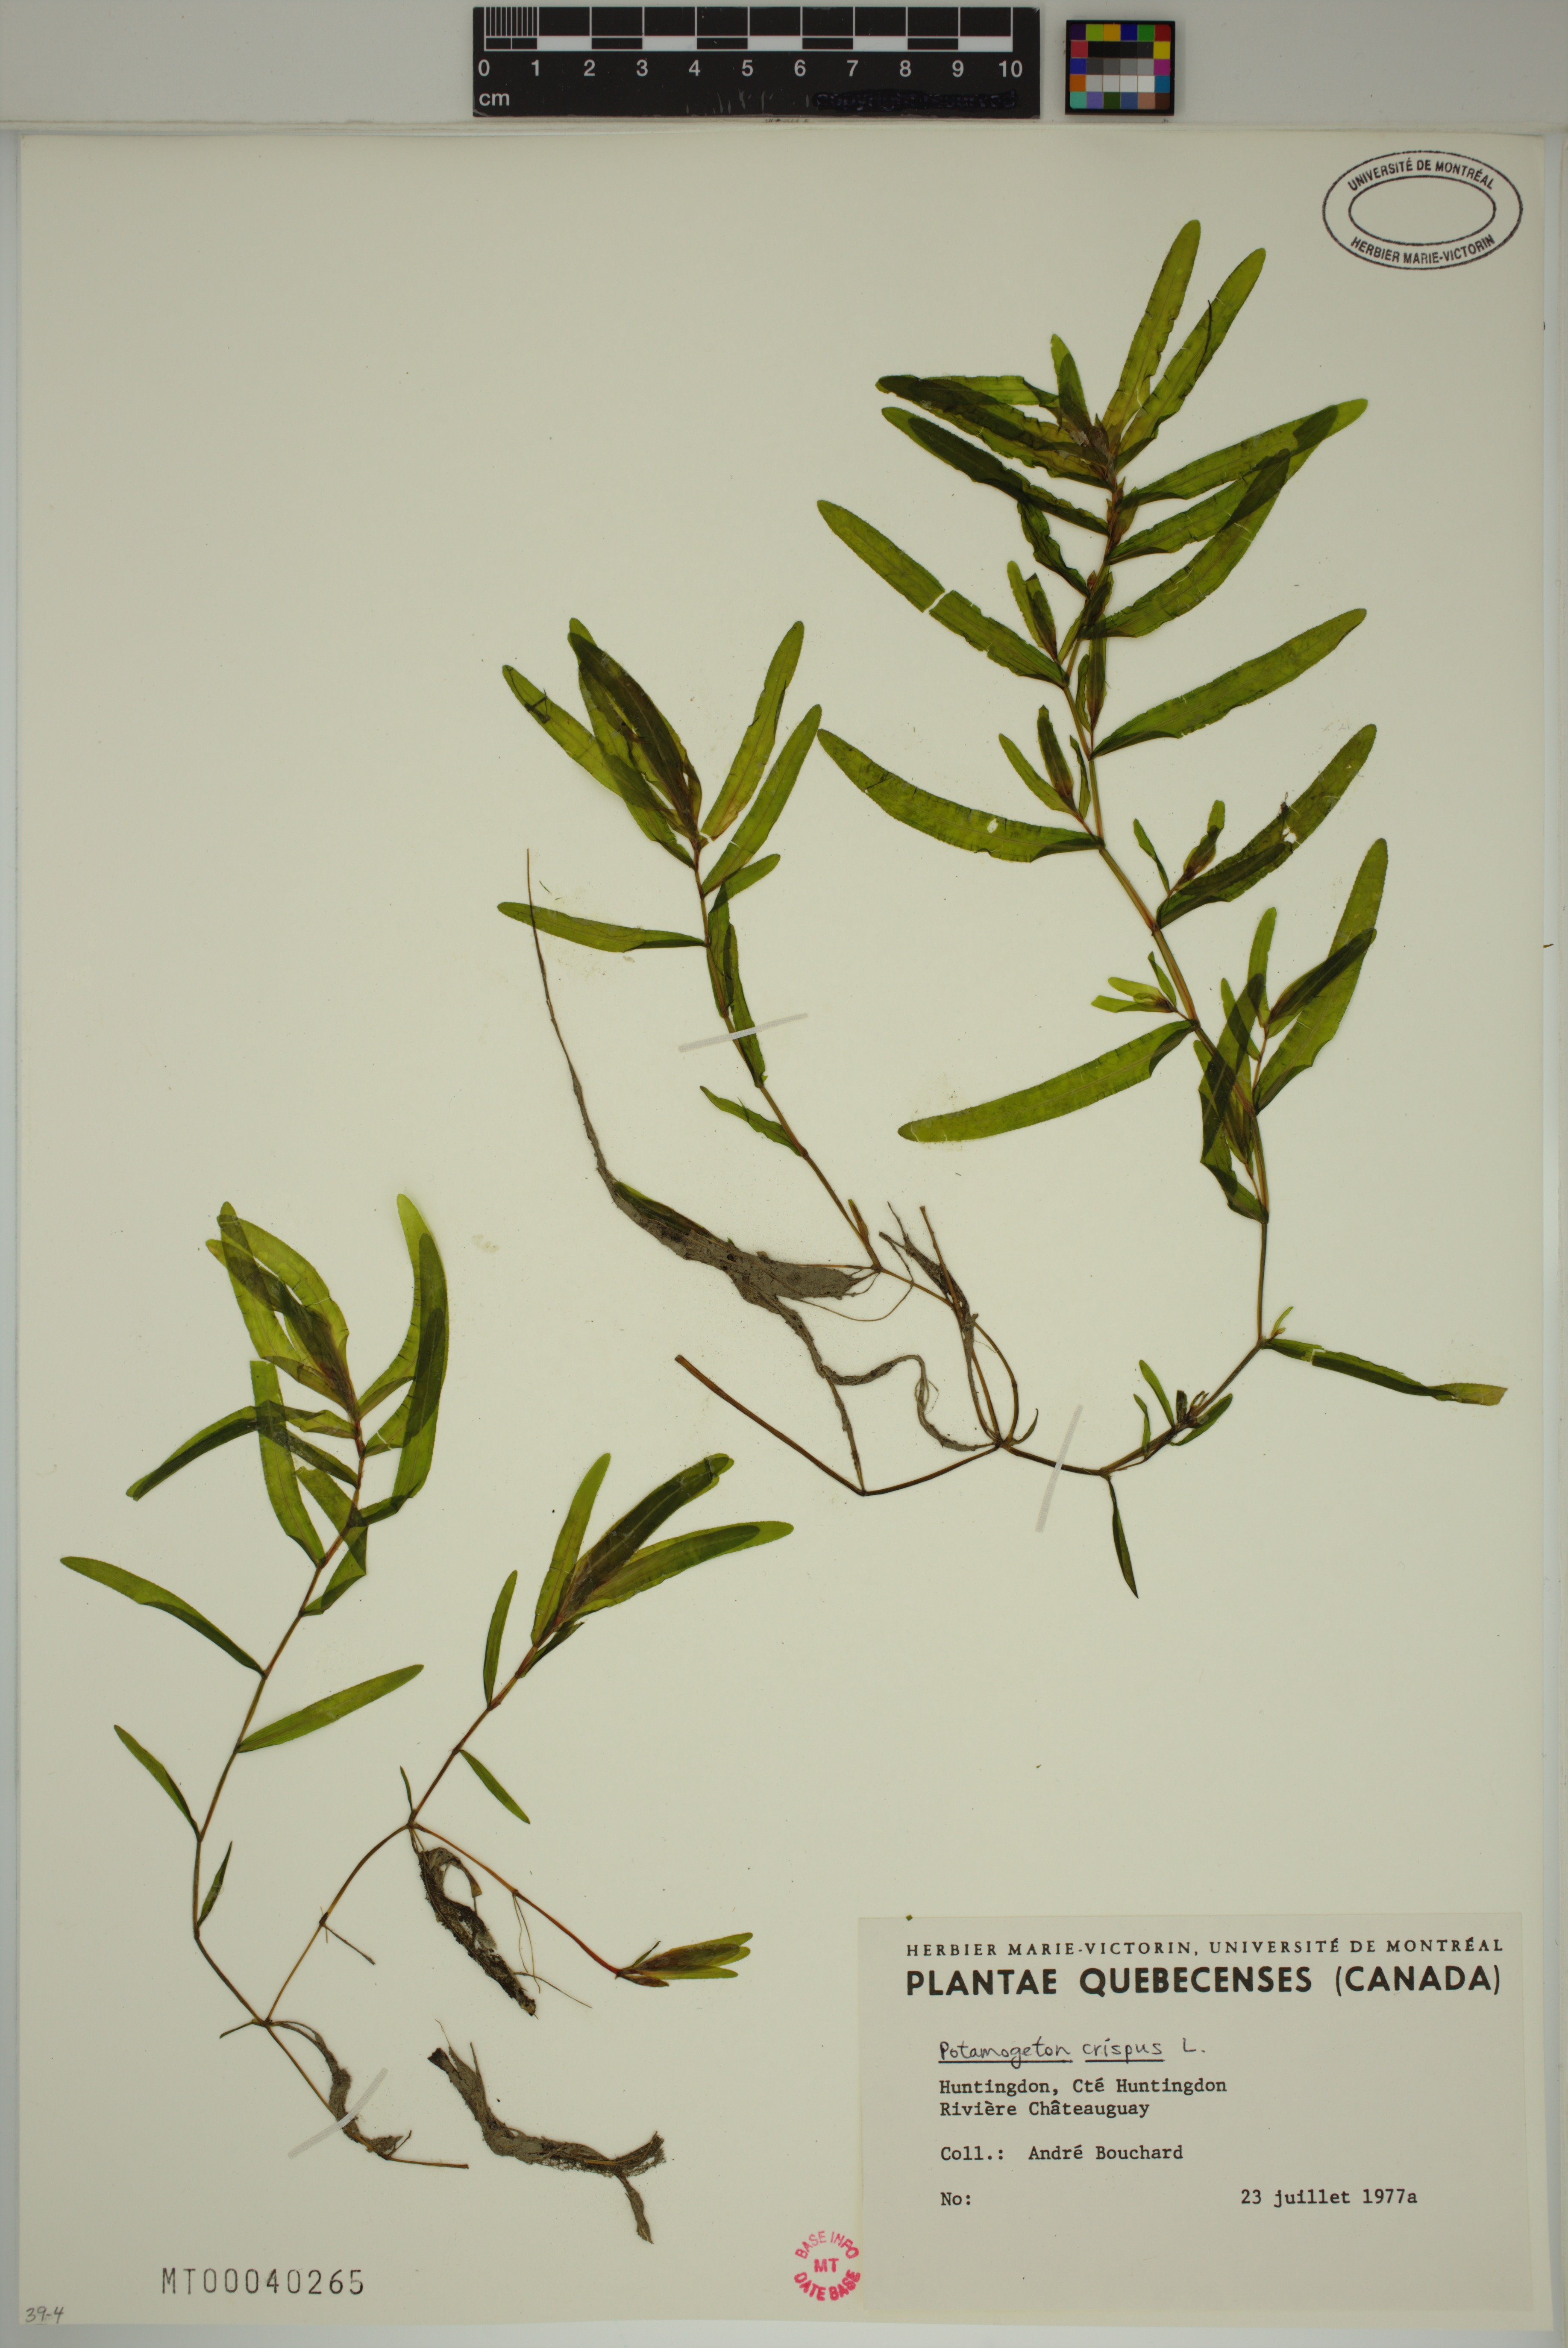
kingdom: Plantae
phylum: Tracheophyta
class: Liliopsida
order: Alismatales
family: Potamogetonaceae
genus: Potamogeton
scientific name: Potamogeton crispus
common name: Curled pondweed
